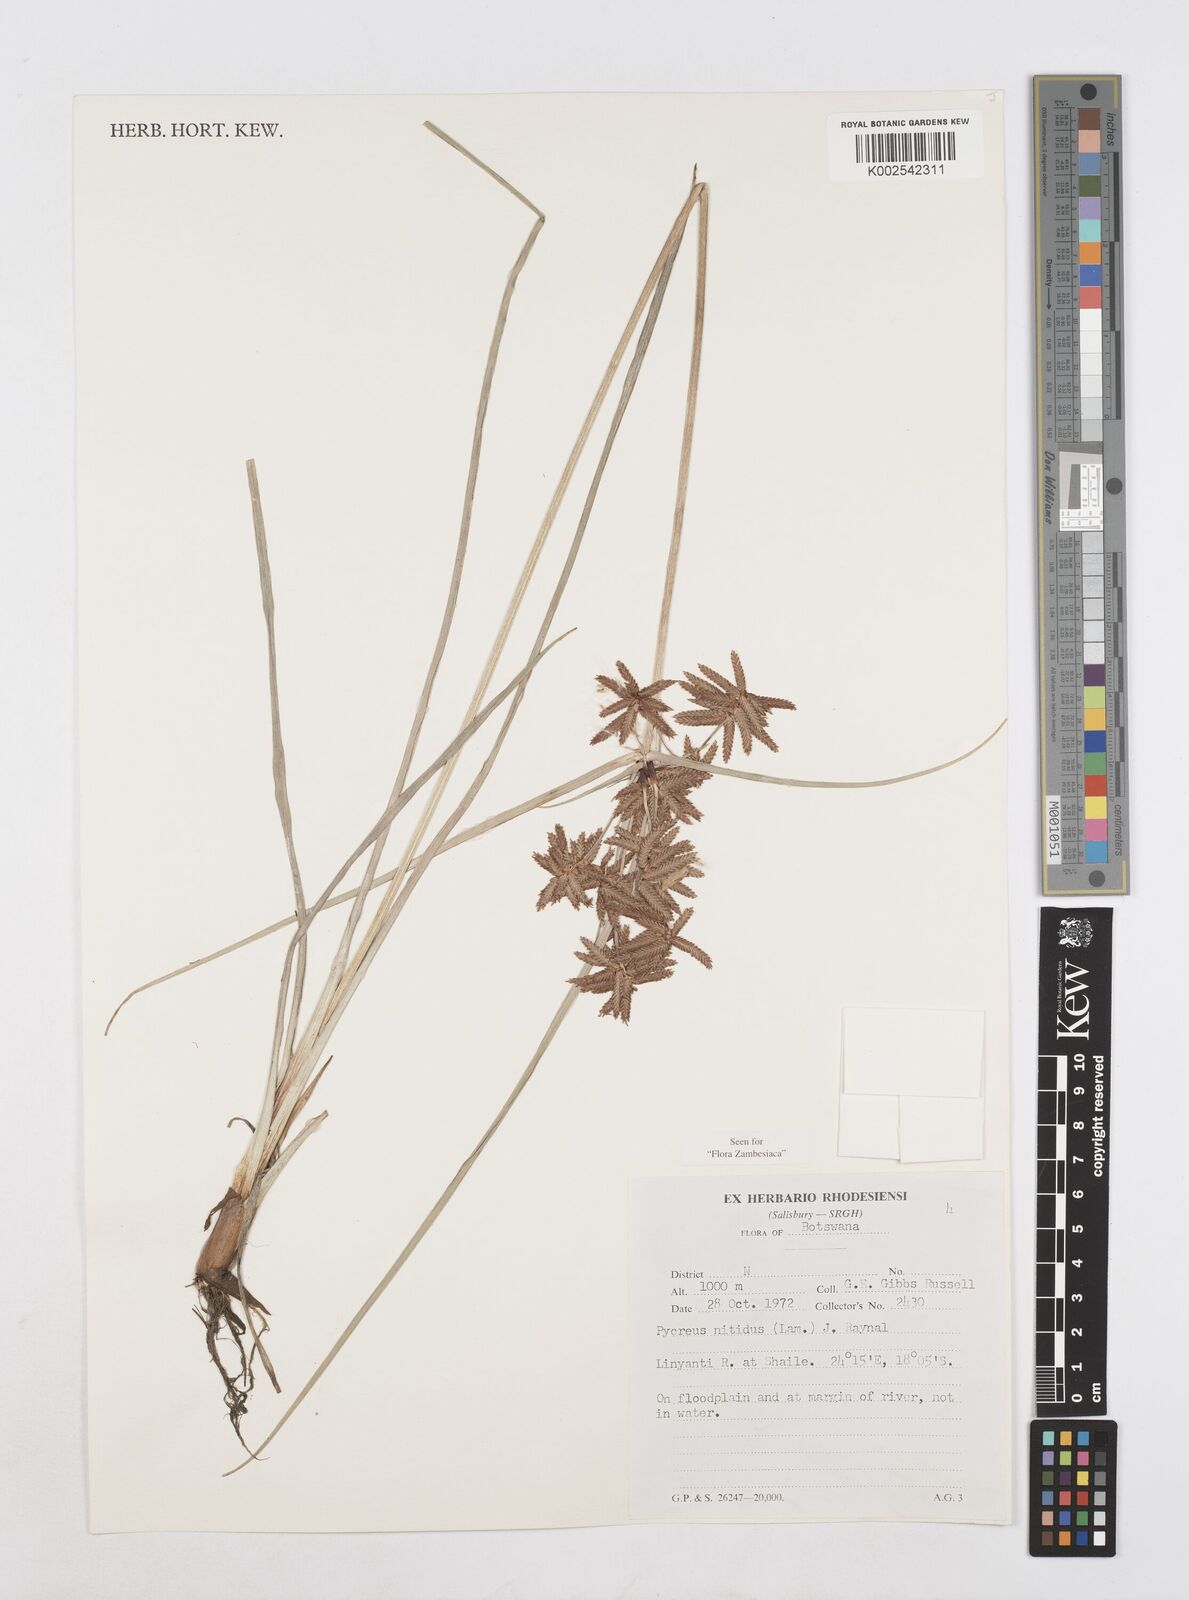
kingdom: Plantae
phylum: Tracheophyta
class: Liliopsida
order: Poales
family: Cyperaceae
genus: Cyperus
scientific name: Cyperus nitidus
